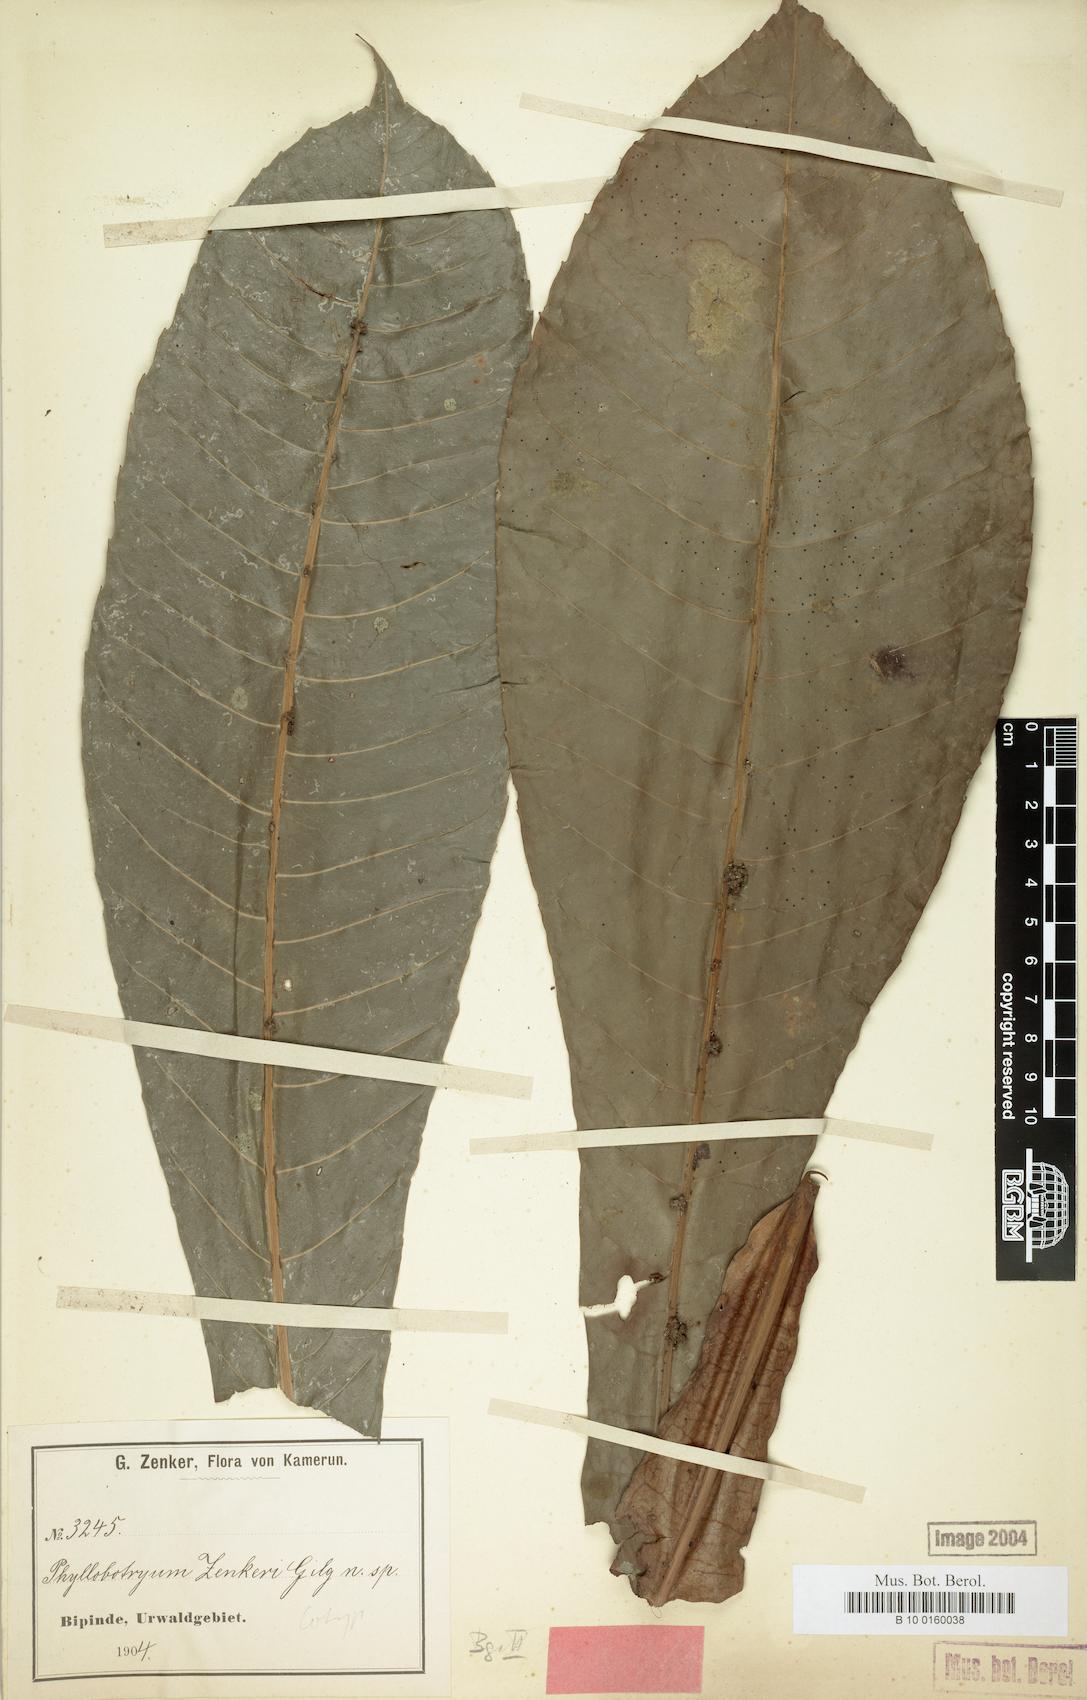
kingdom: Plantae
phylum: Tracheophyta
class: Magnoliopsida
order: Malpighiales
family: Salicaceae
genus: Phyllobotryon
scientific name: Phyllobotryon spathulatum
